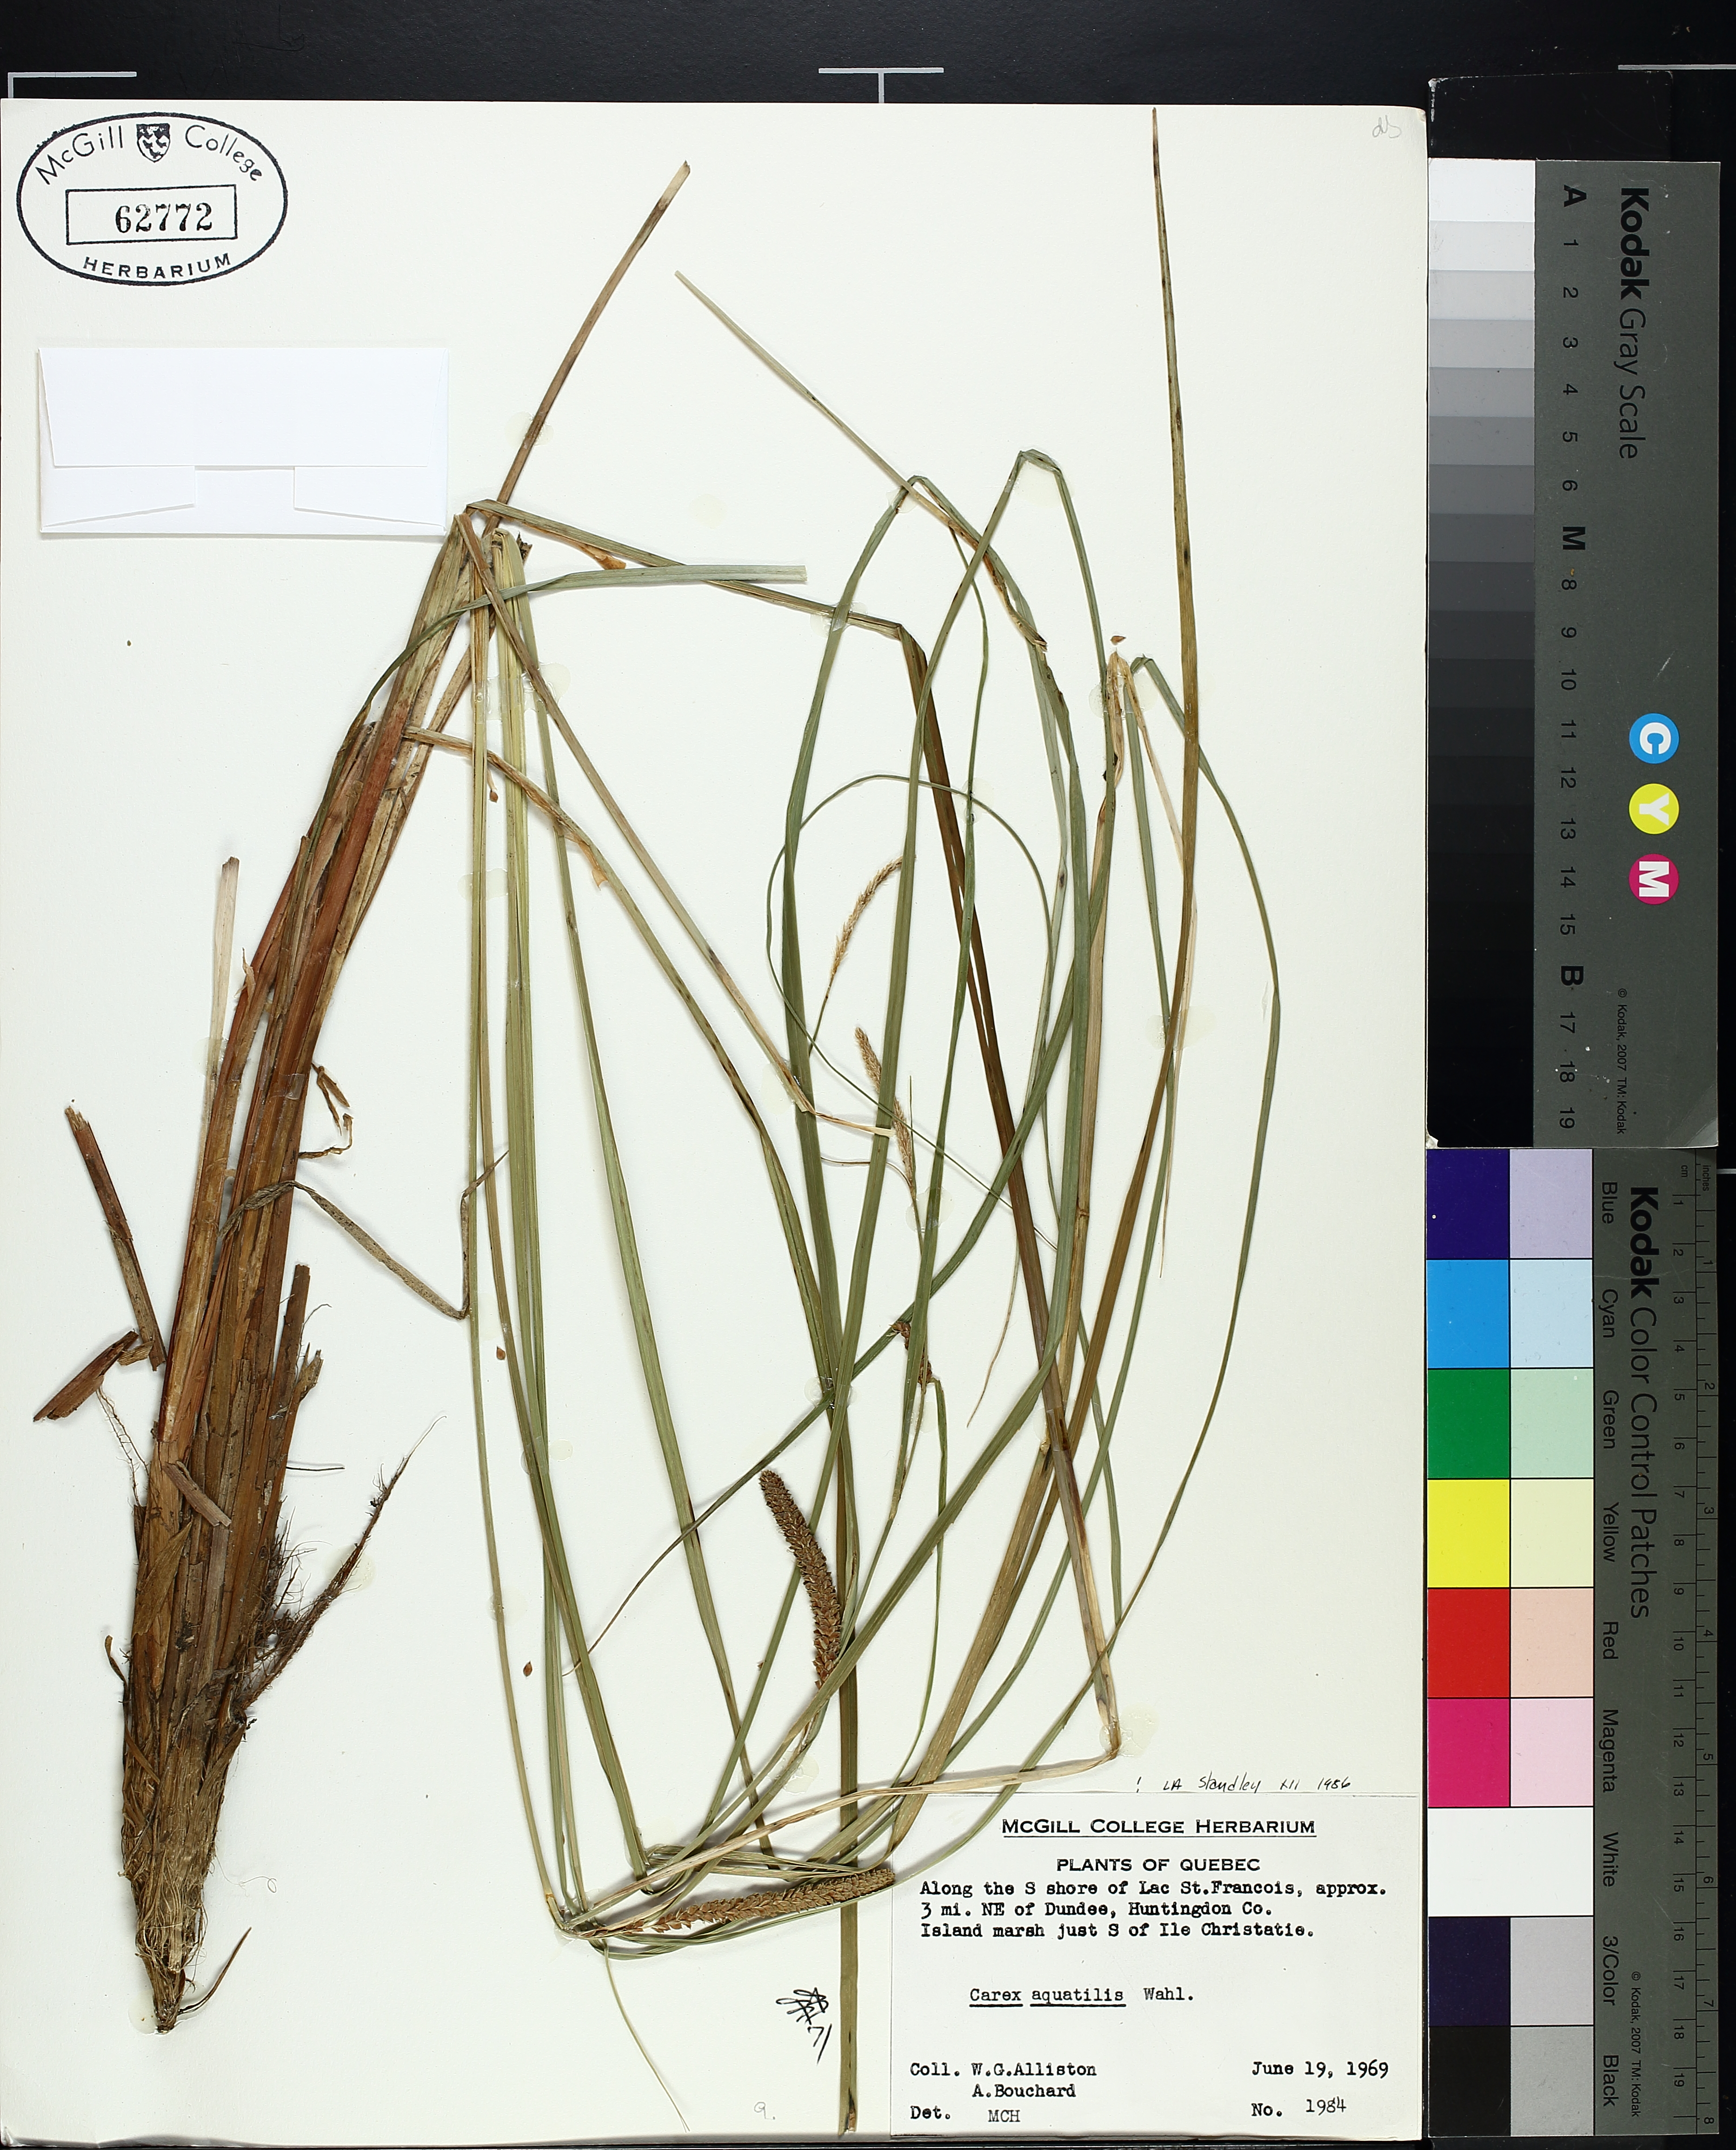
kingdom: Plantae
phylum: Tracheophyta
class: Liliopsida
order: Poales
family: Cyperaceae
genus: Carex
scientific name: Carex aquatilis
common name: Water sedge
